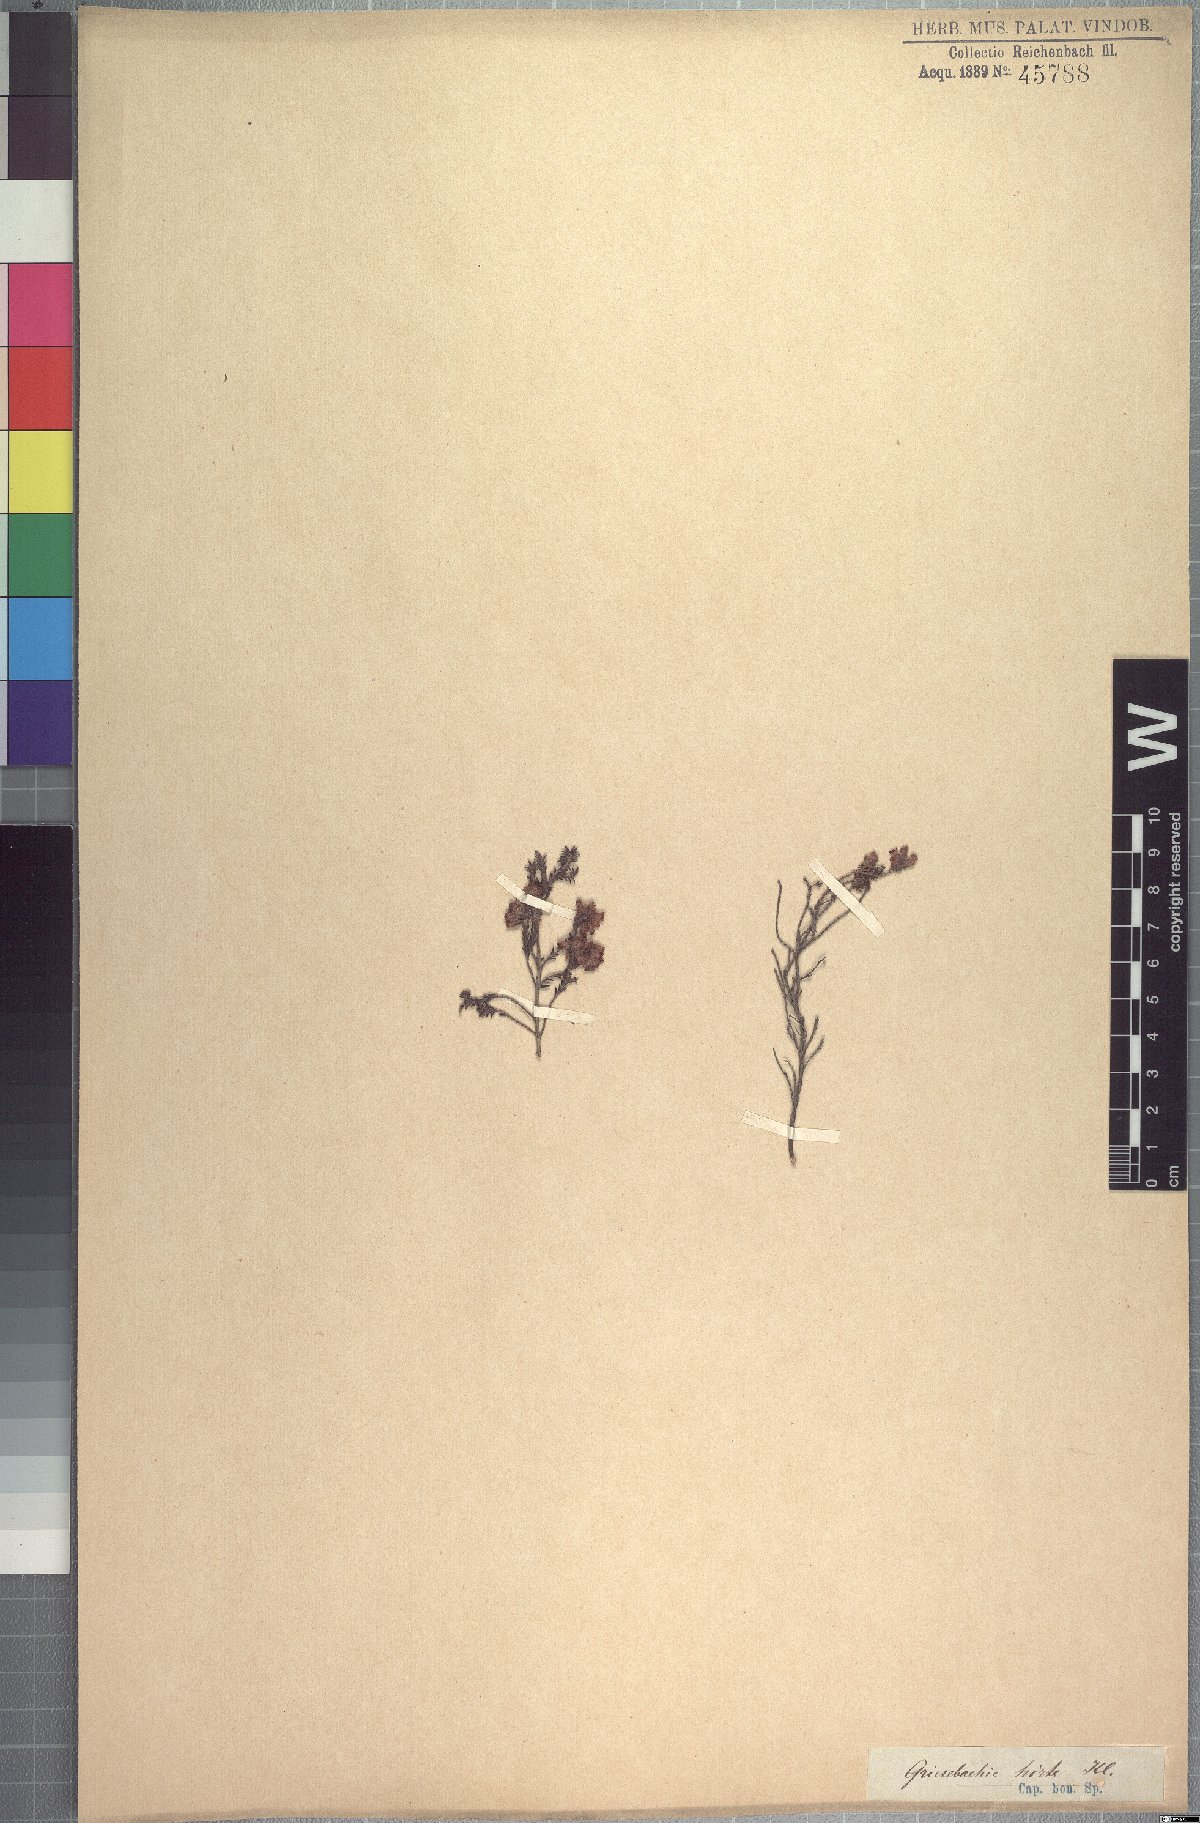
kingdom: Plantae
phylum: Tracheophyta
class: Magnoliopsida
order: Ericales
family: Ericaceae
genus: Erica
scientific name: Erica plumosa
